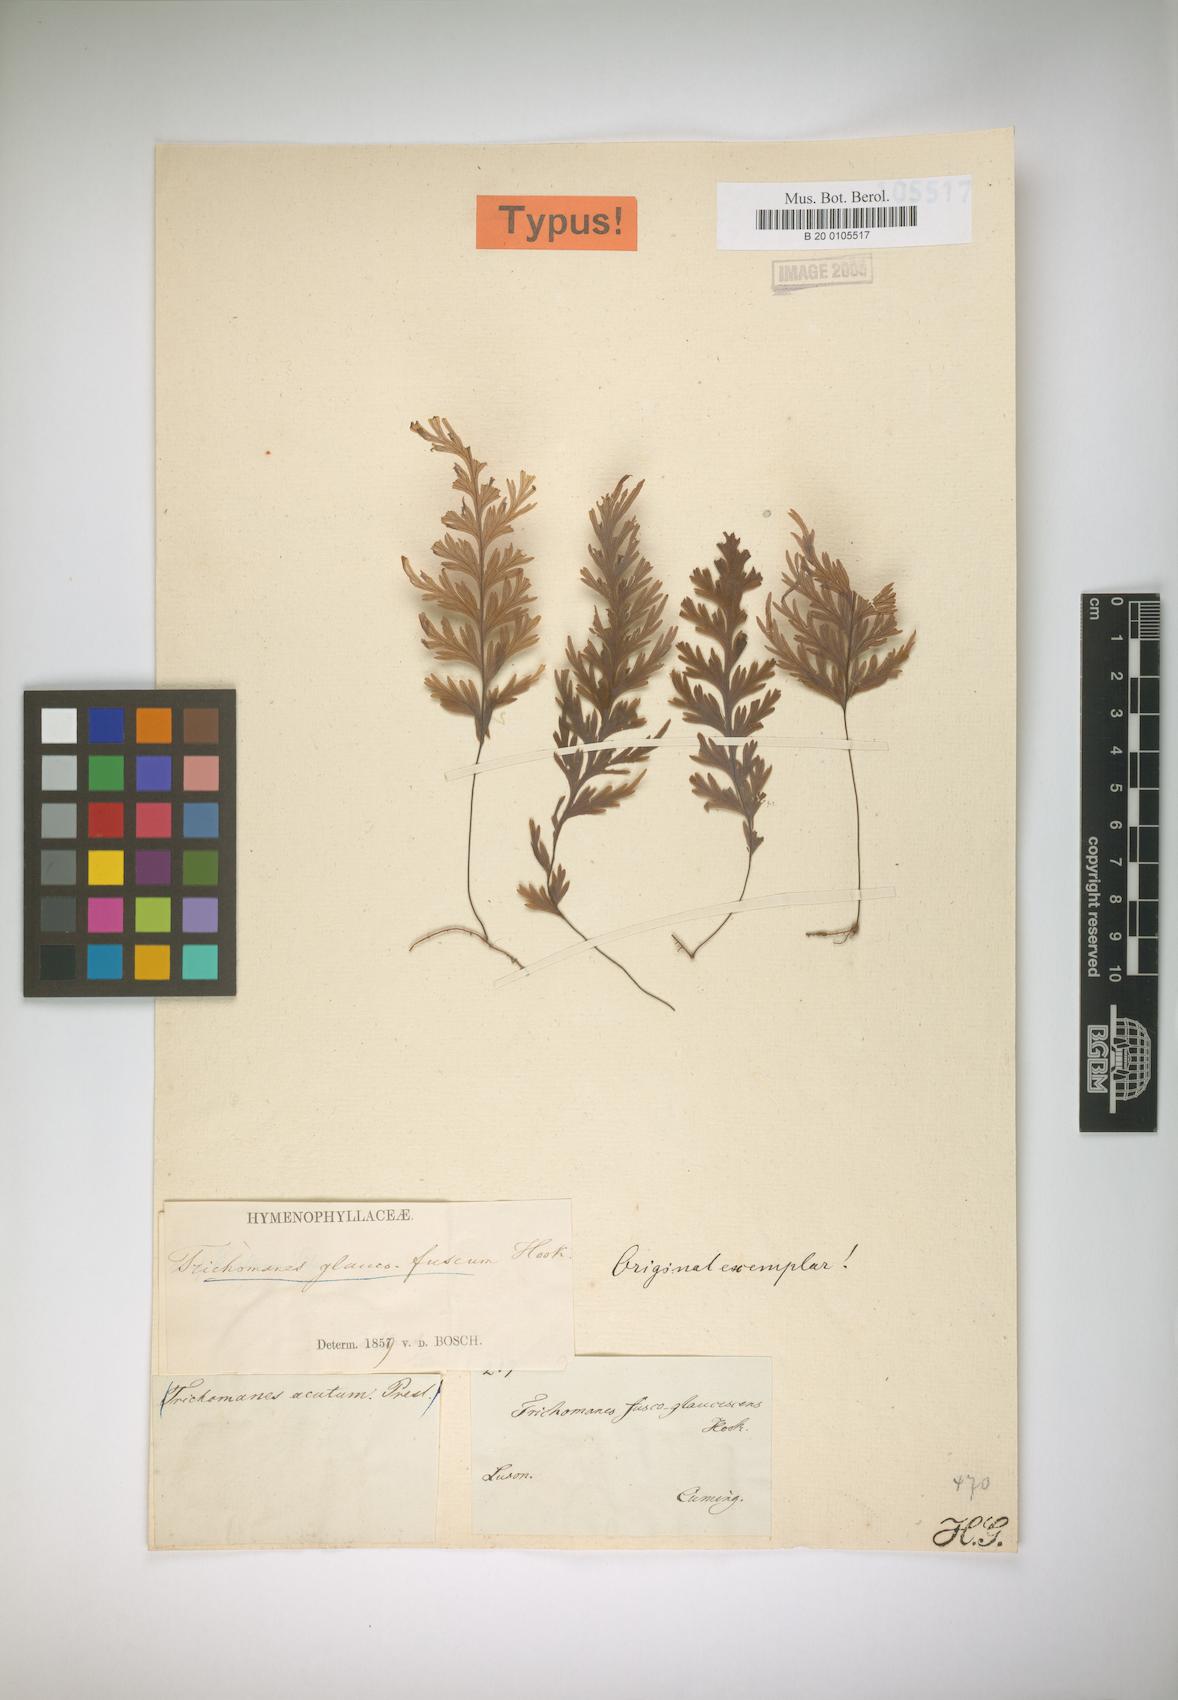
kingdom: Plantae
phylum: Tracheophyta
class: Polypodiopsida
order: Hymenophyllales
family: Hymenophyllaceae
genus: Hymenophyllum
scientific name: Hymenophyllum pallidum
